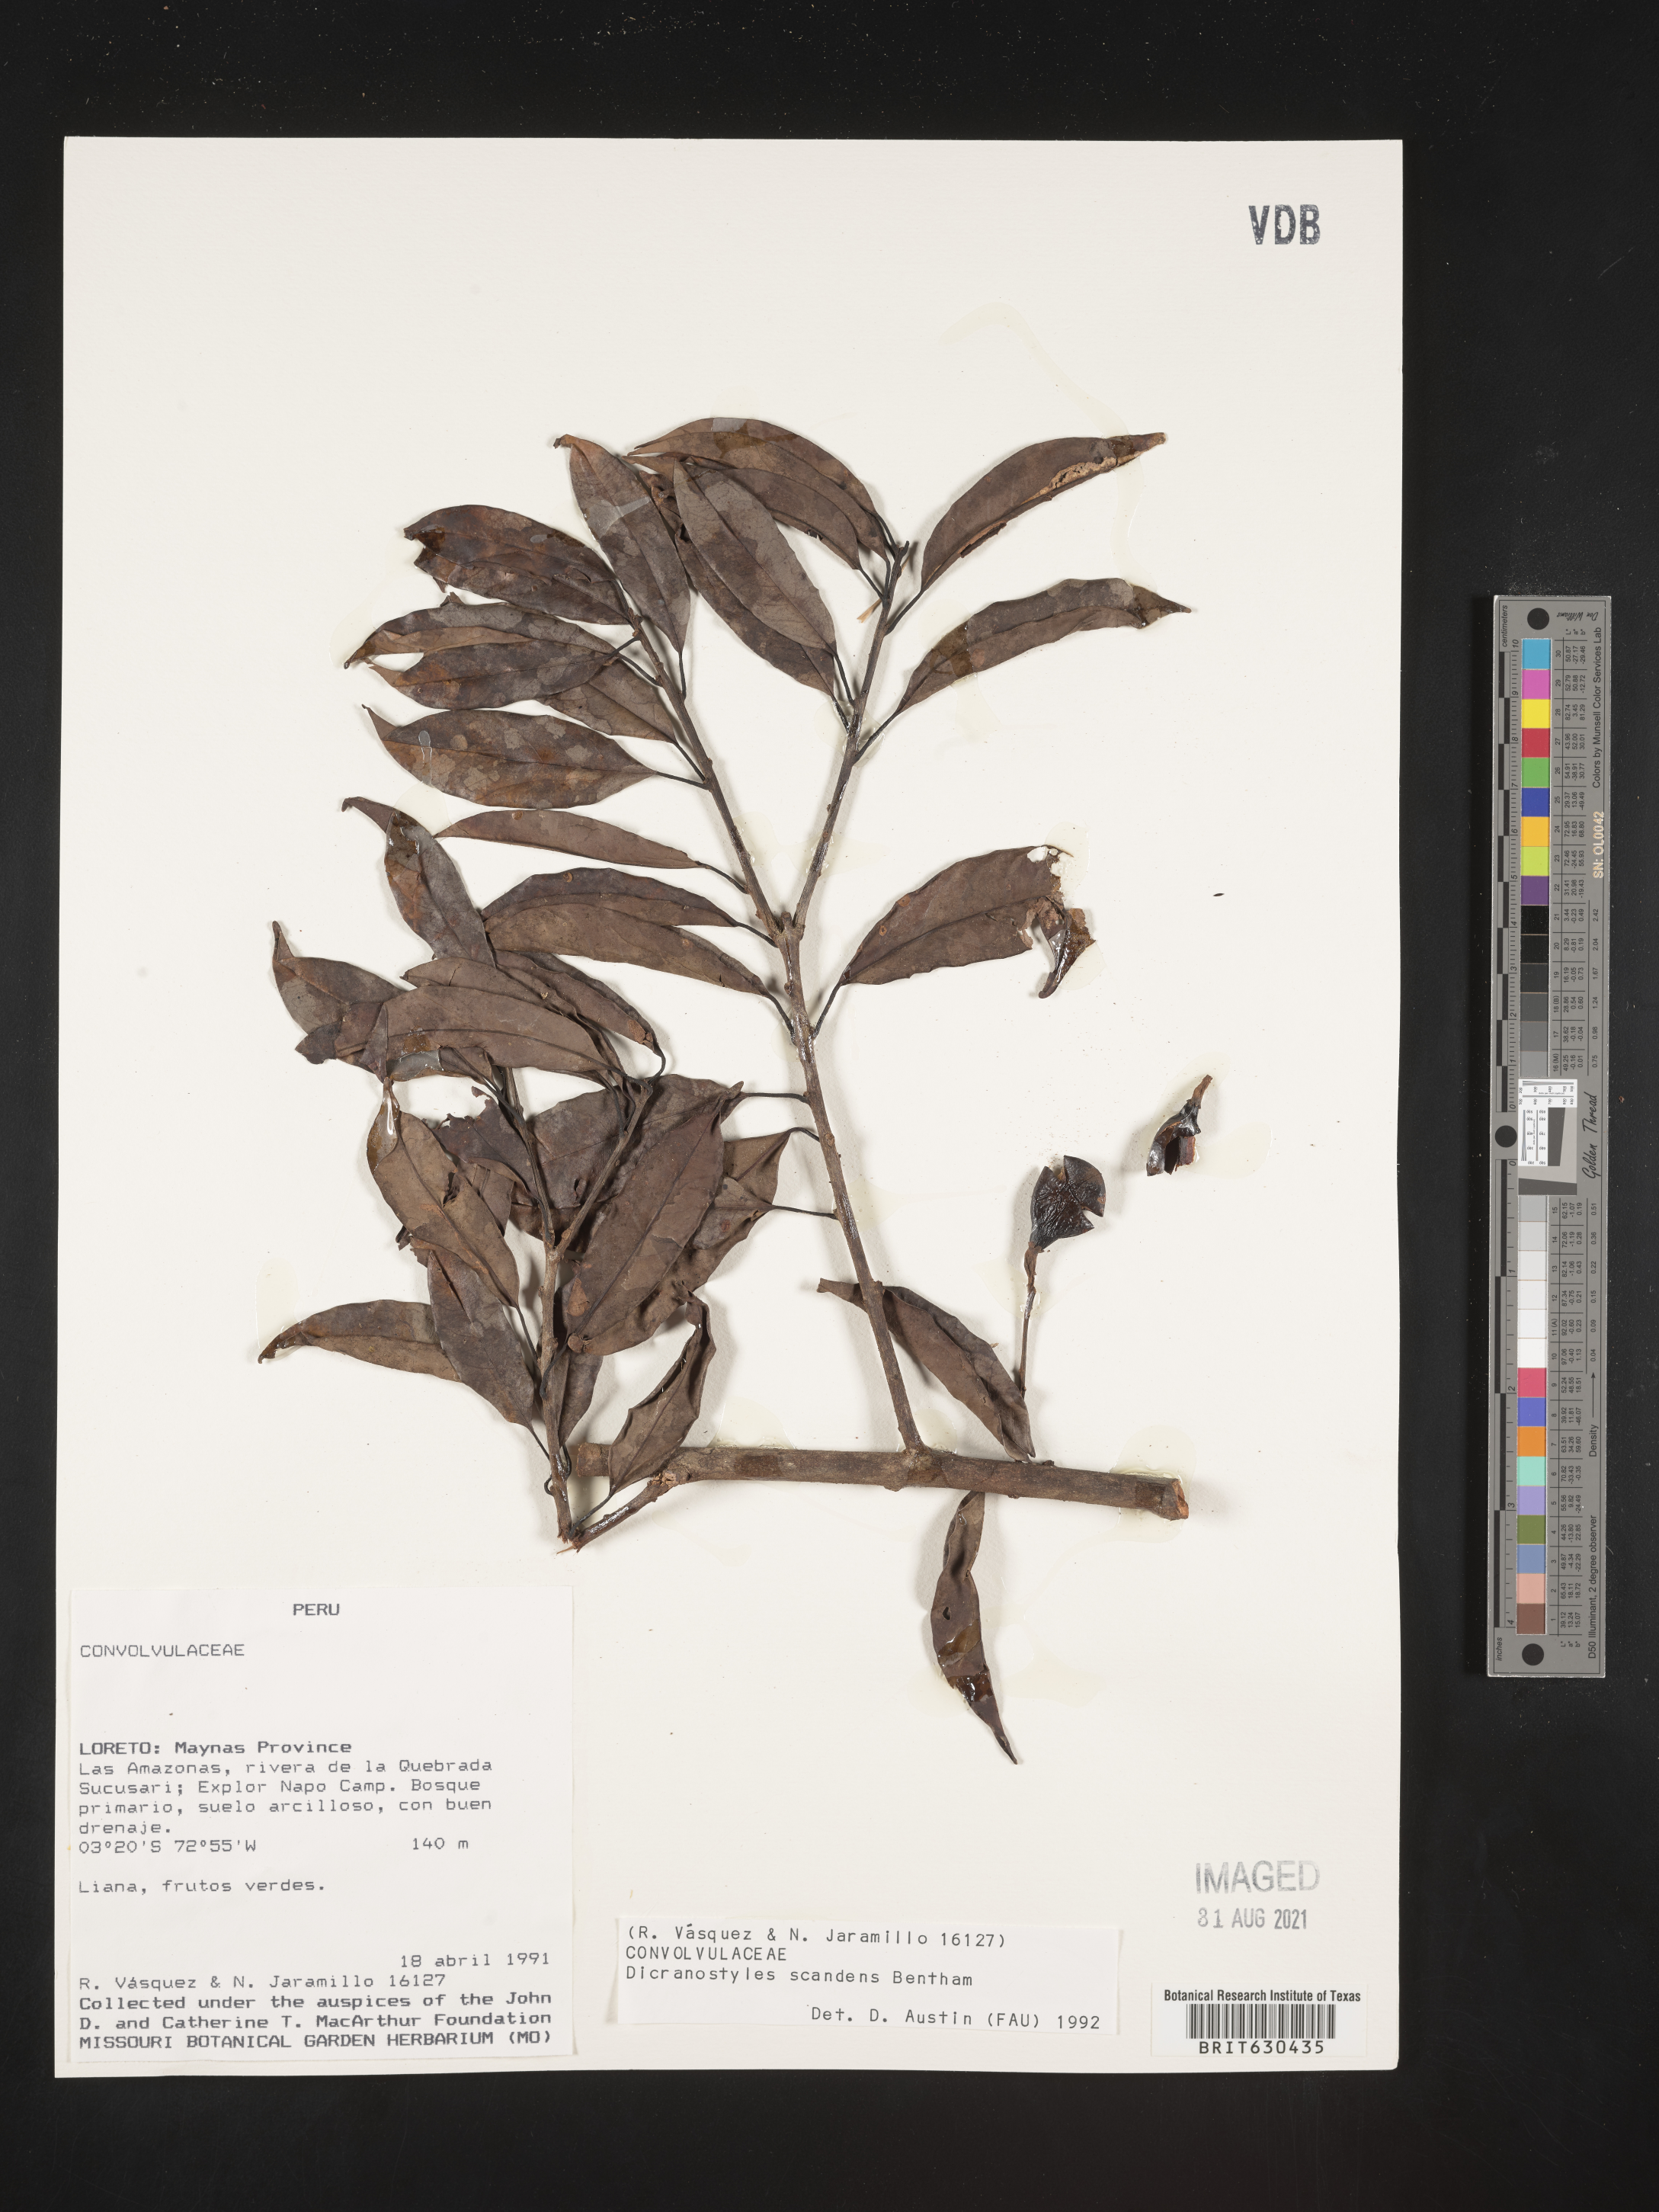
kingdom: Plantae
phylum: Tracheophyta
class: Magnoliopsida
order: Solanales
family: Convolvulaceae
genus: Dicranostyles
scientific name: Dicranostyles scandens
